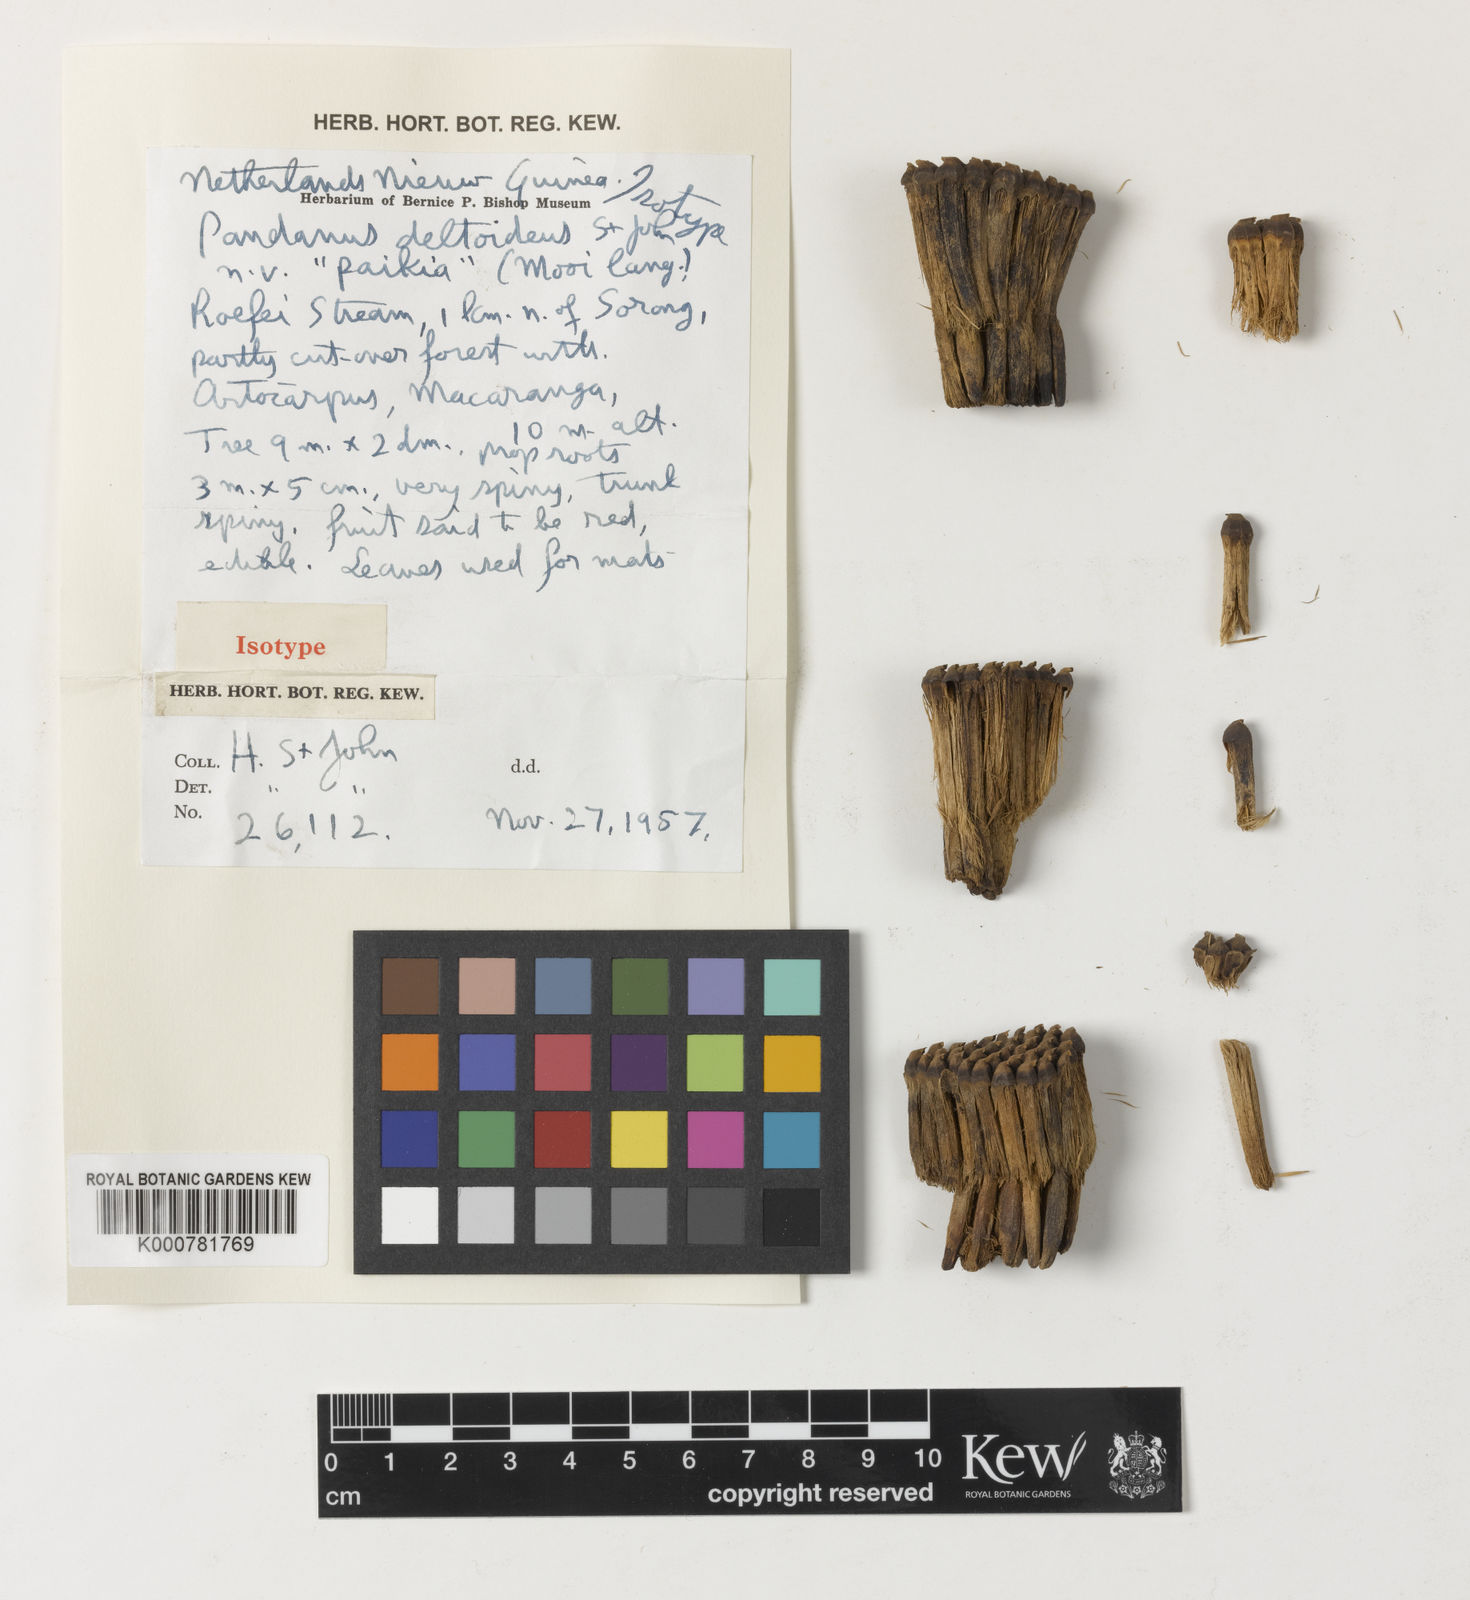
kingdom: Plantae
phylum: Tracheophyta
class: Liliopsida
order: Pandanales
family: Pandanaceae
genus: Pandanus
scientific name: Pandanus
